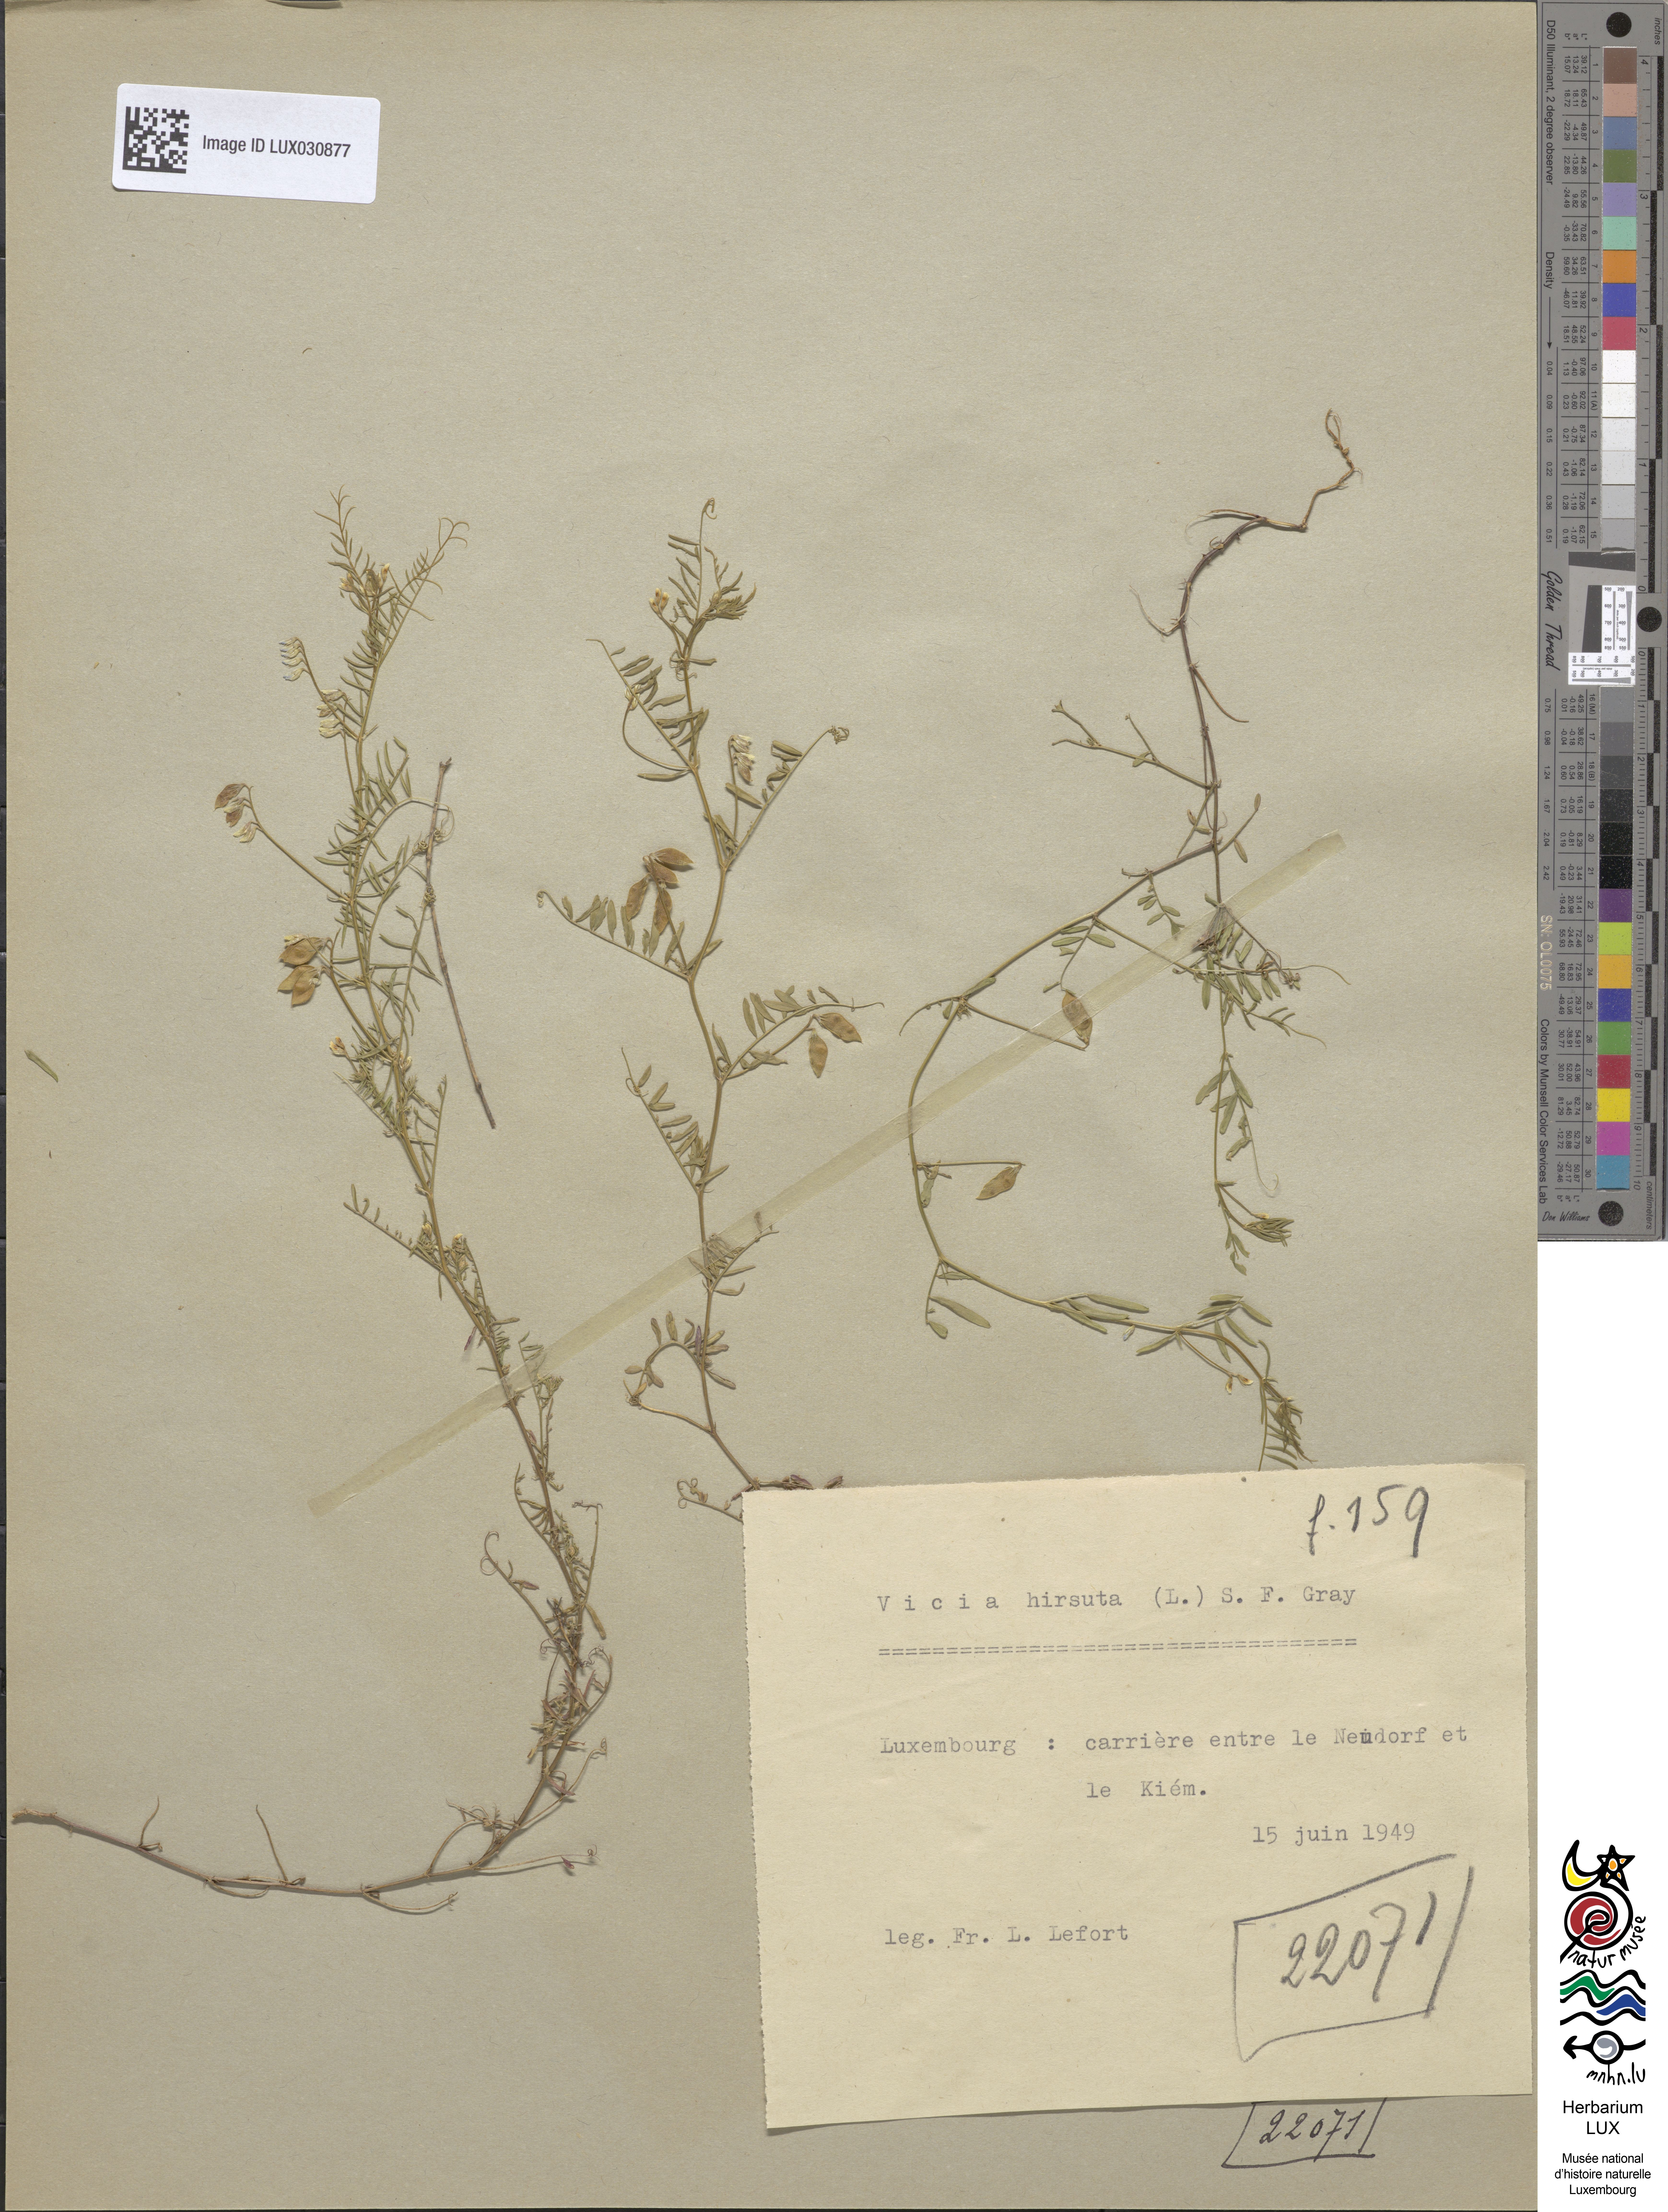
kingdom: Plantae
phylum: Tracheophyta
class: Magnoliopsida
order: Fabales
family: Fabaceae
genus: Vicia
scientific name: Vicia hirsuta
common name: Tiny vetch
